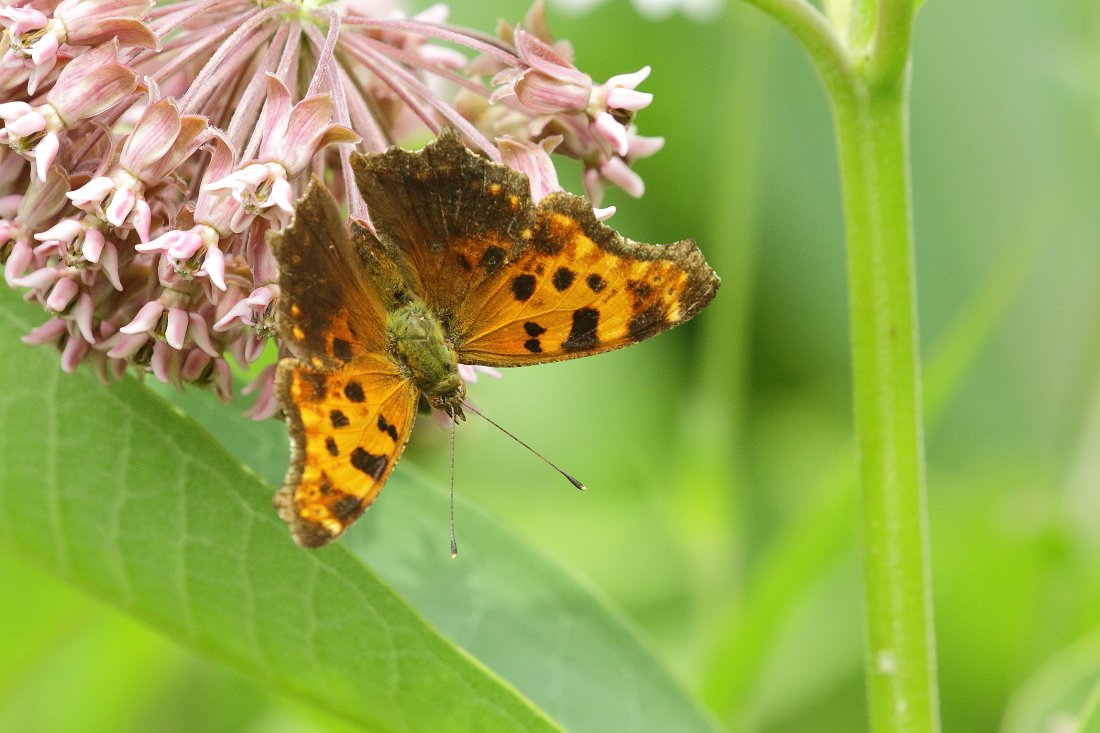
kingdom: Animalia
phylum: Arthropoda
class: Insecta
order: Lepidoptera
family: Nymphalidae
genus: Polygonia
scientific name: Polygonia comma
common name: Eastern Comma
